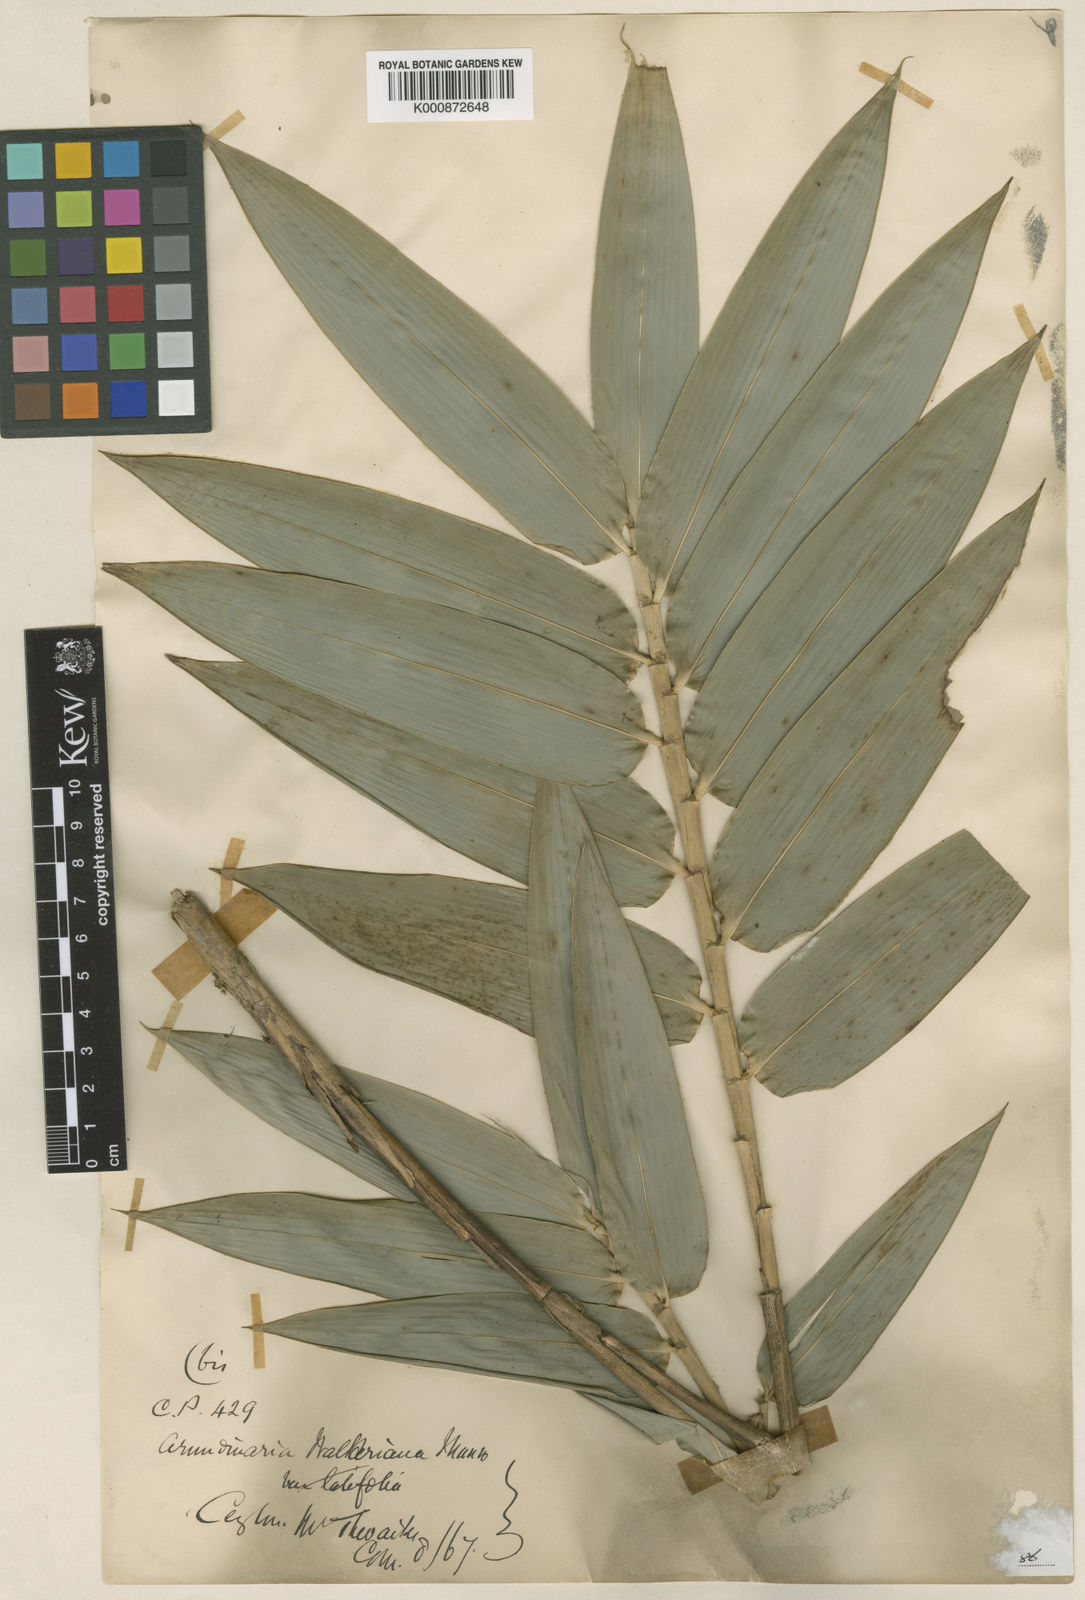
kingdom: Plantae
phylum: Tracheophyta
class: Liliopsida
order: Poales
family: Poaceae
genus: Kuruna
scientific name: Kuruna walkeriana
